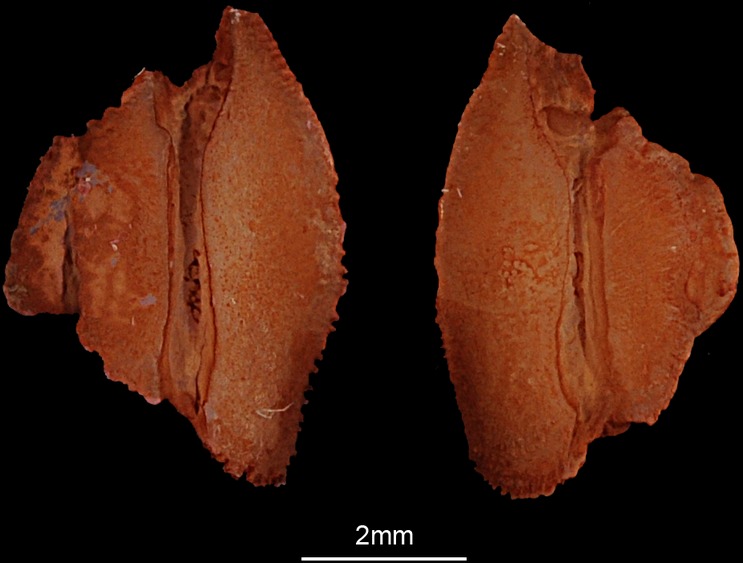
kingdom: Animalia
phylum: Chordata
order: Salmoniformes
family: Salmonidae
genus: Salmo
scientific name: Salmo trutta
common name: Brown trout
